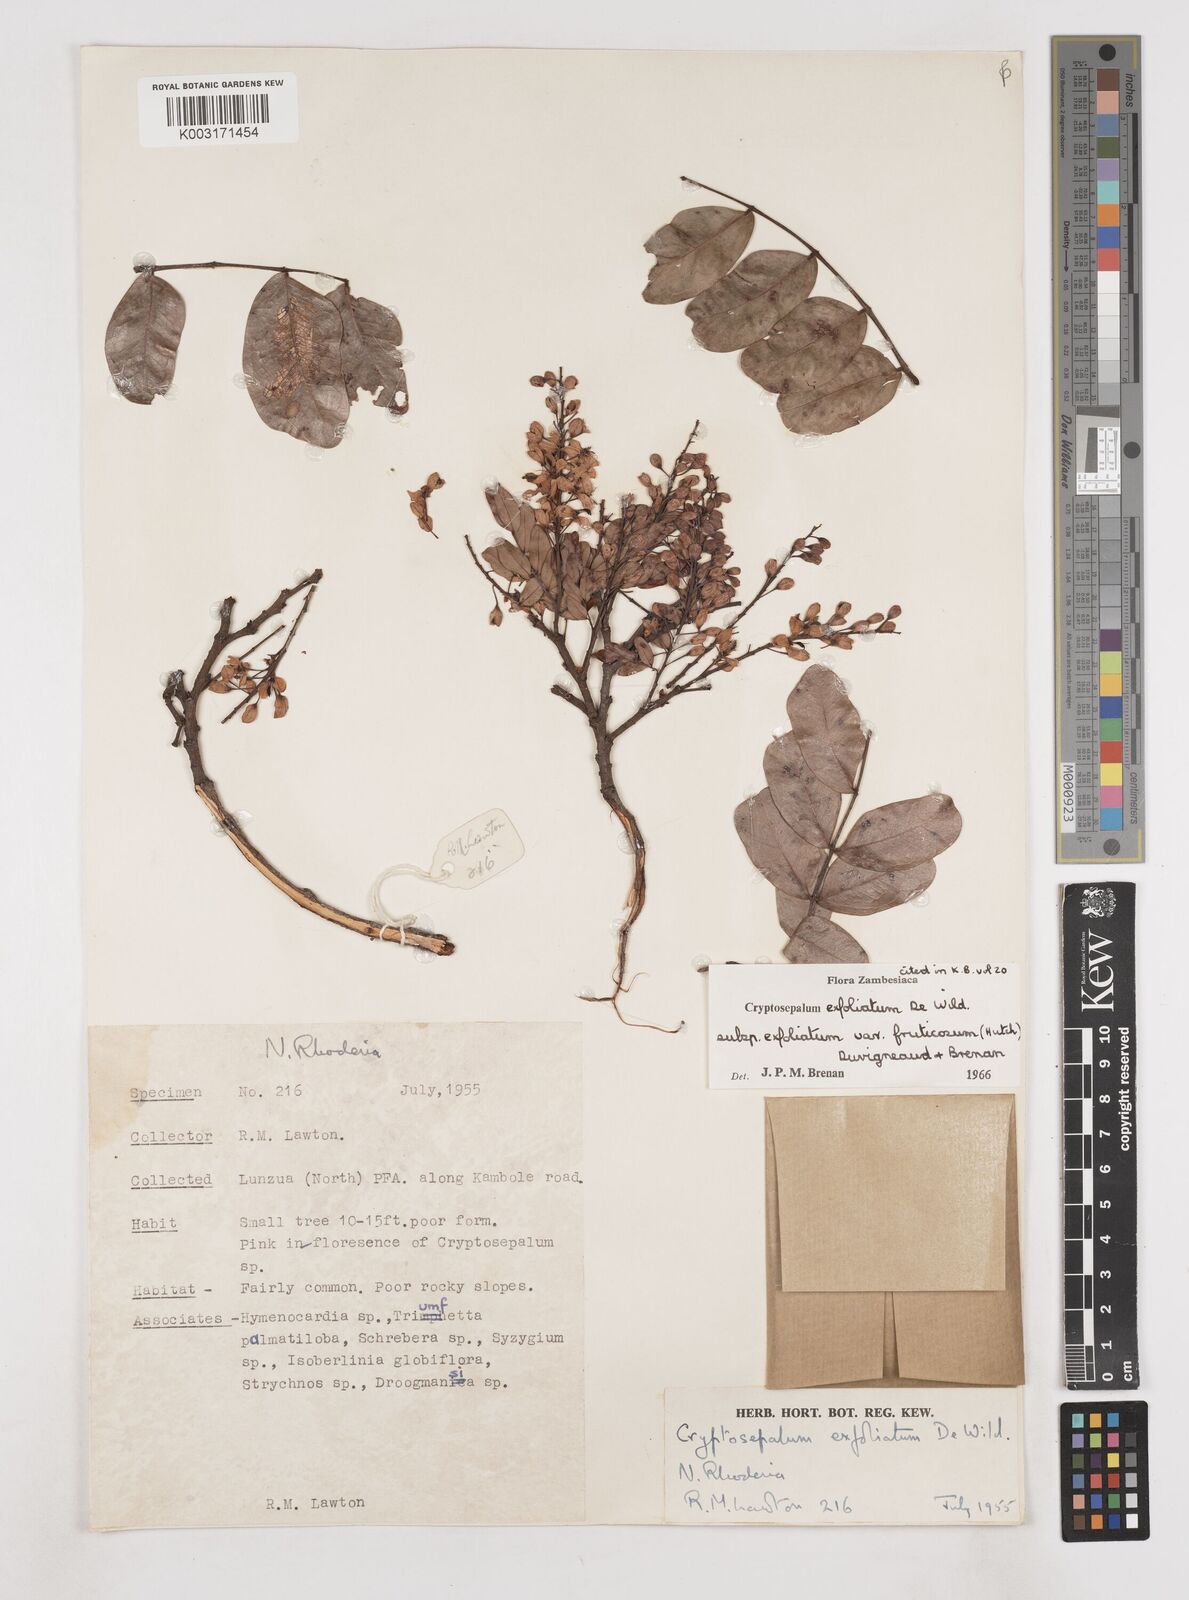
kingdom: Plantae
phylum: Tracheophyta
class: Magnoliopsida
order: Fabales
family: Fabaceae
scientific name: Fabaceae
